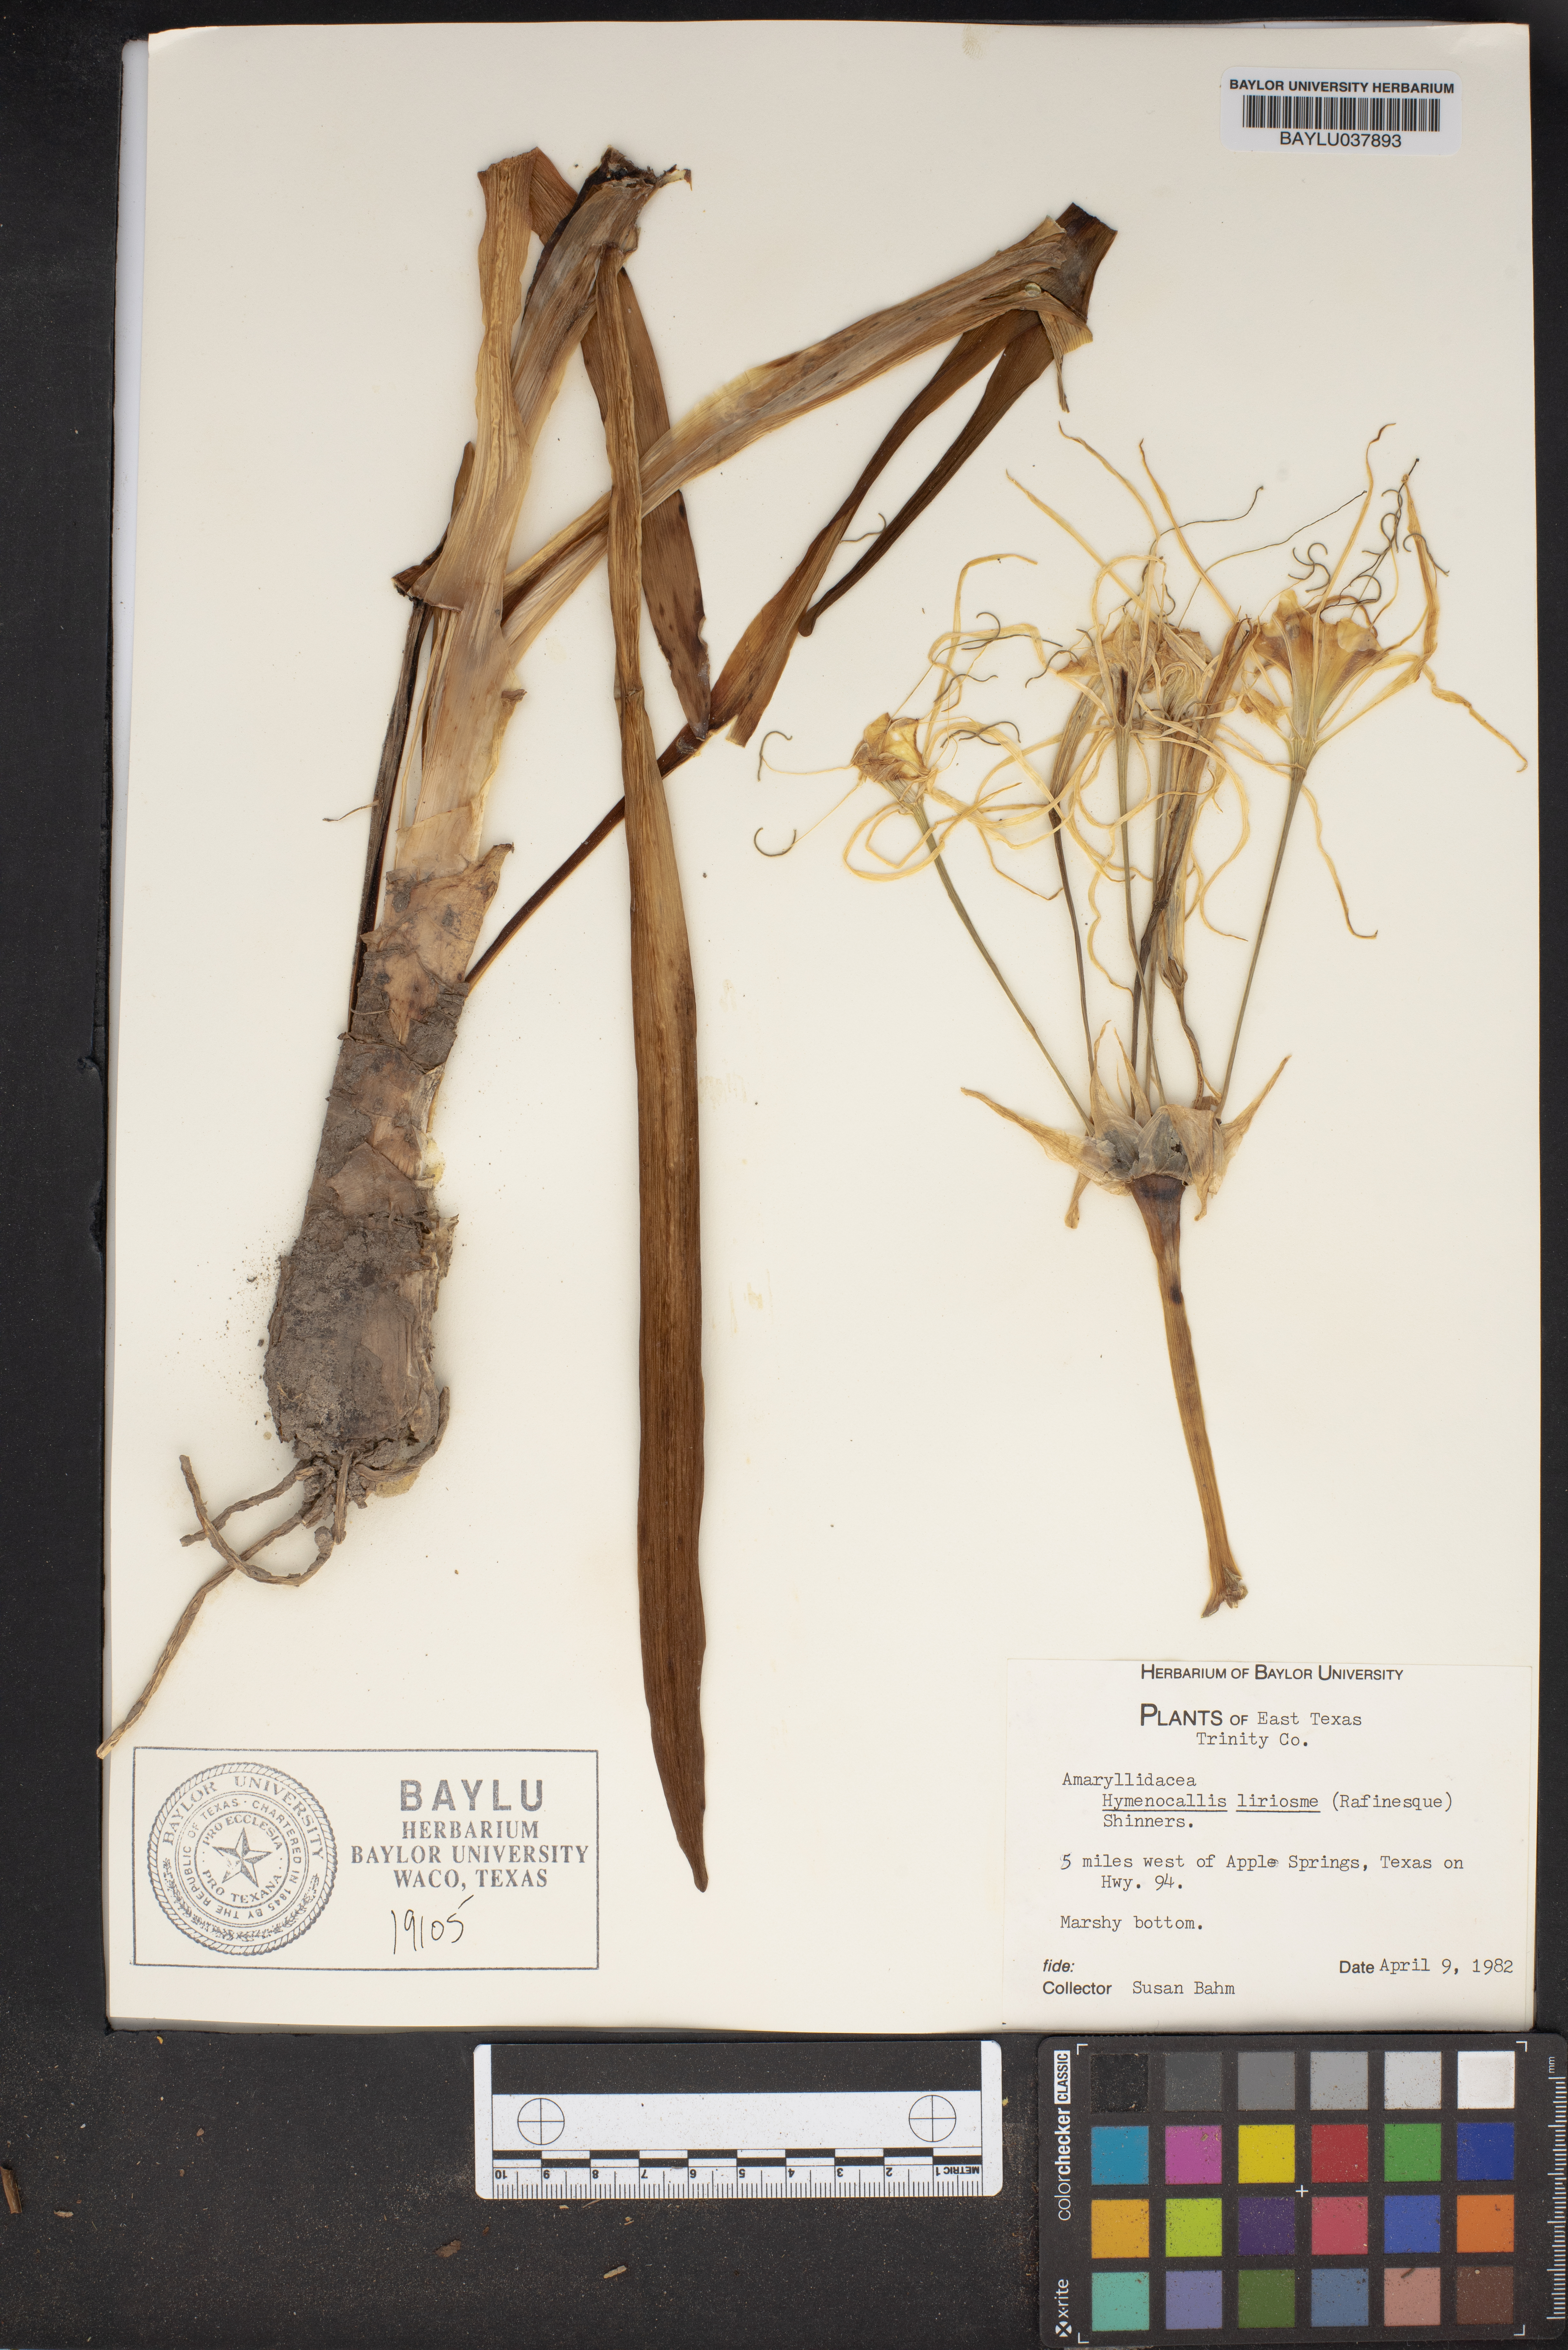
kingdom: Plantae
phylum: Tracheophyta
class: Liliopsida
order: Asparagales
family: Amaryllidaceae
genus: Hymenocallis
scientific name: Hymenocallis liriosme
